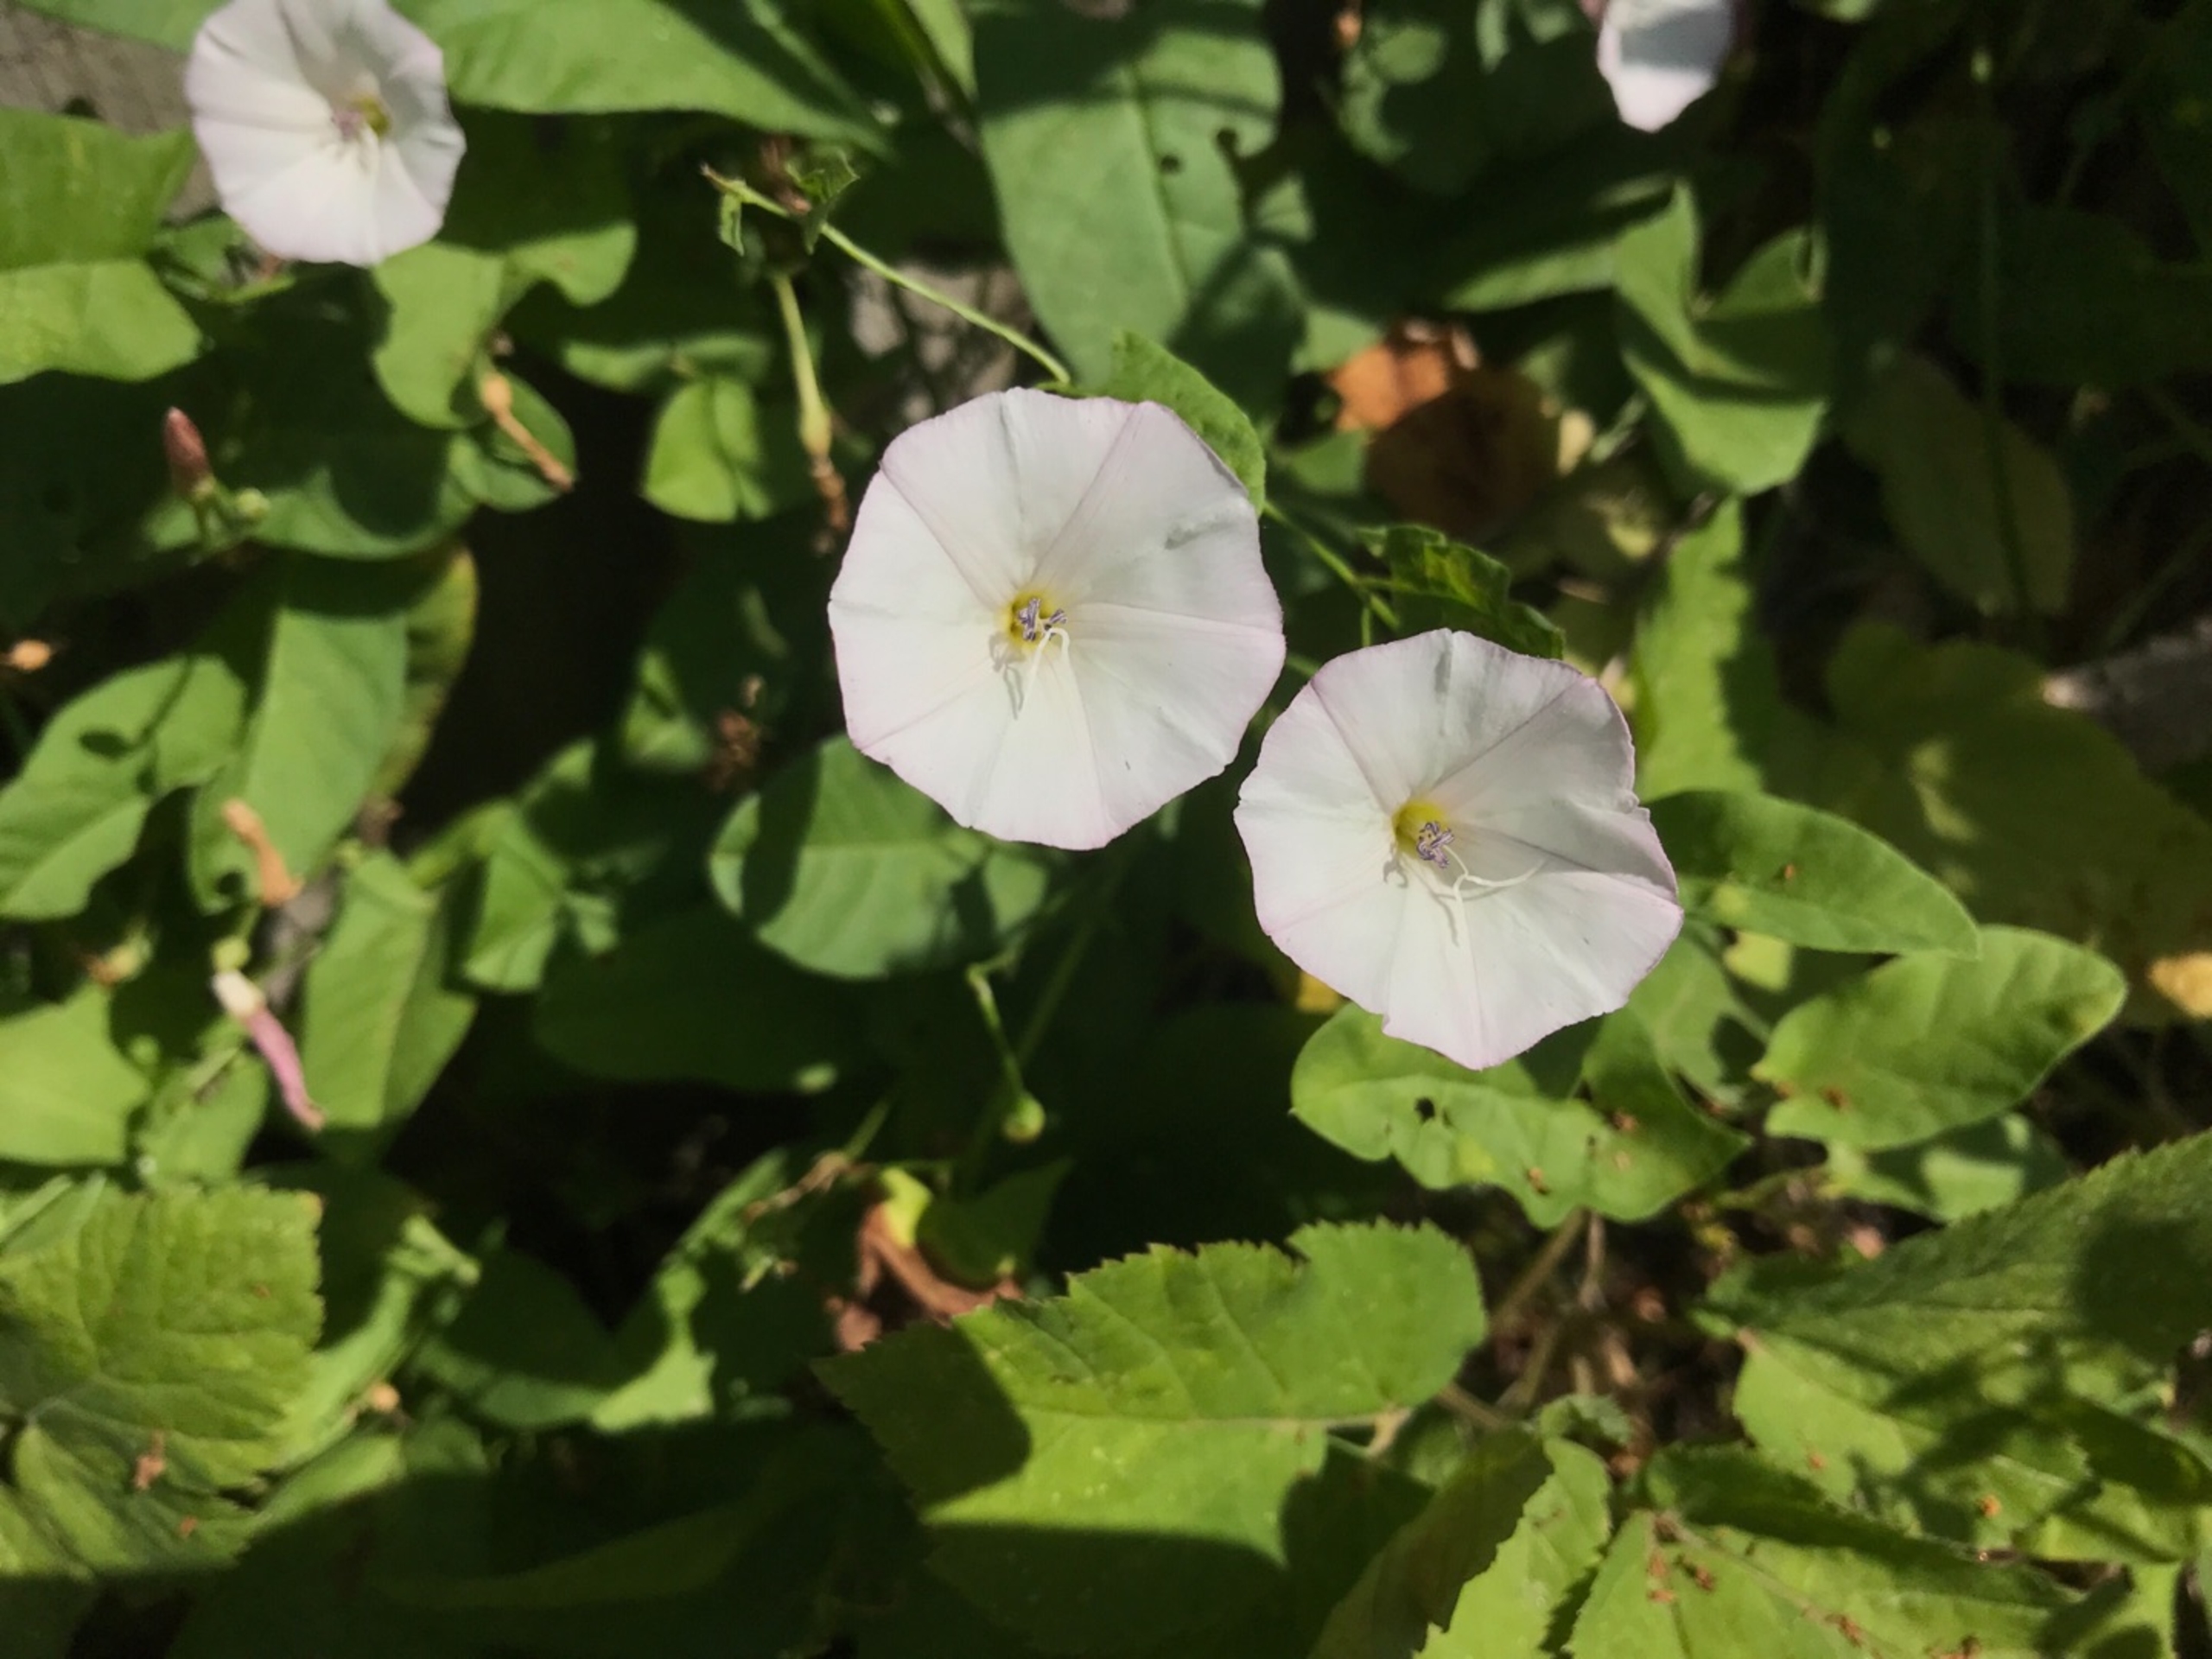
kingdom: Plantae
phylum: Tracheophyta
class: Magnoliopsida
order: Solanales
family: Convolvulaceae
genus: Convolvulus
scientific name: Convolvulus arvensis
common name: Ager-snerle
